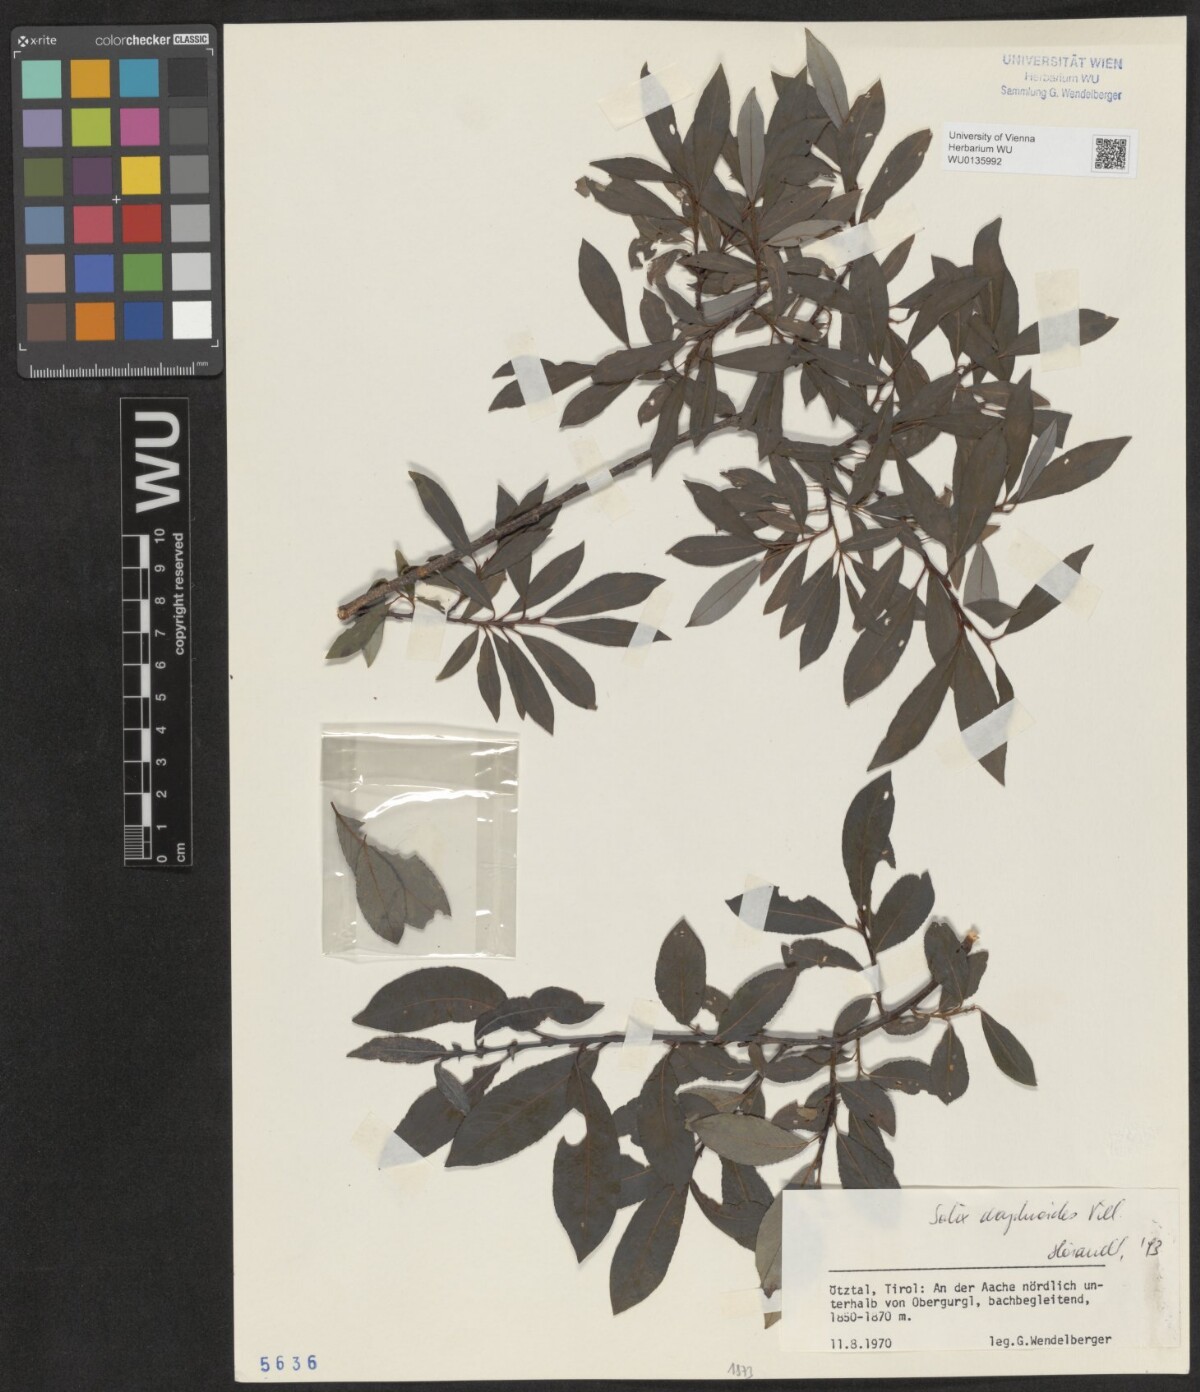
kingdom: Plantae
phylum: Tracheophyta
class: Magnoliopsida
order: Malpighiales
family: Salicaceae
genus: Salix
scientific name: Salix daphnoides
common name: European violet-willow
